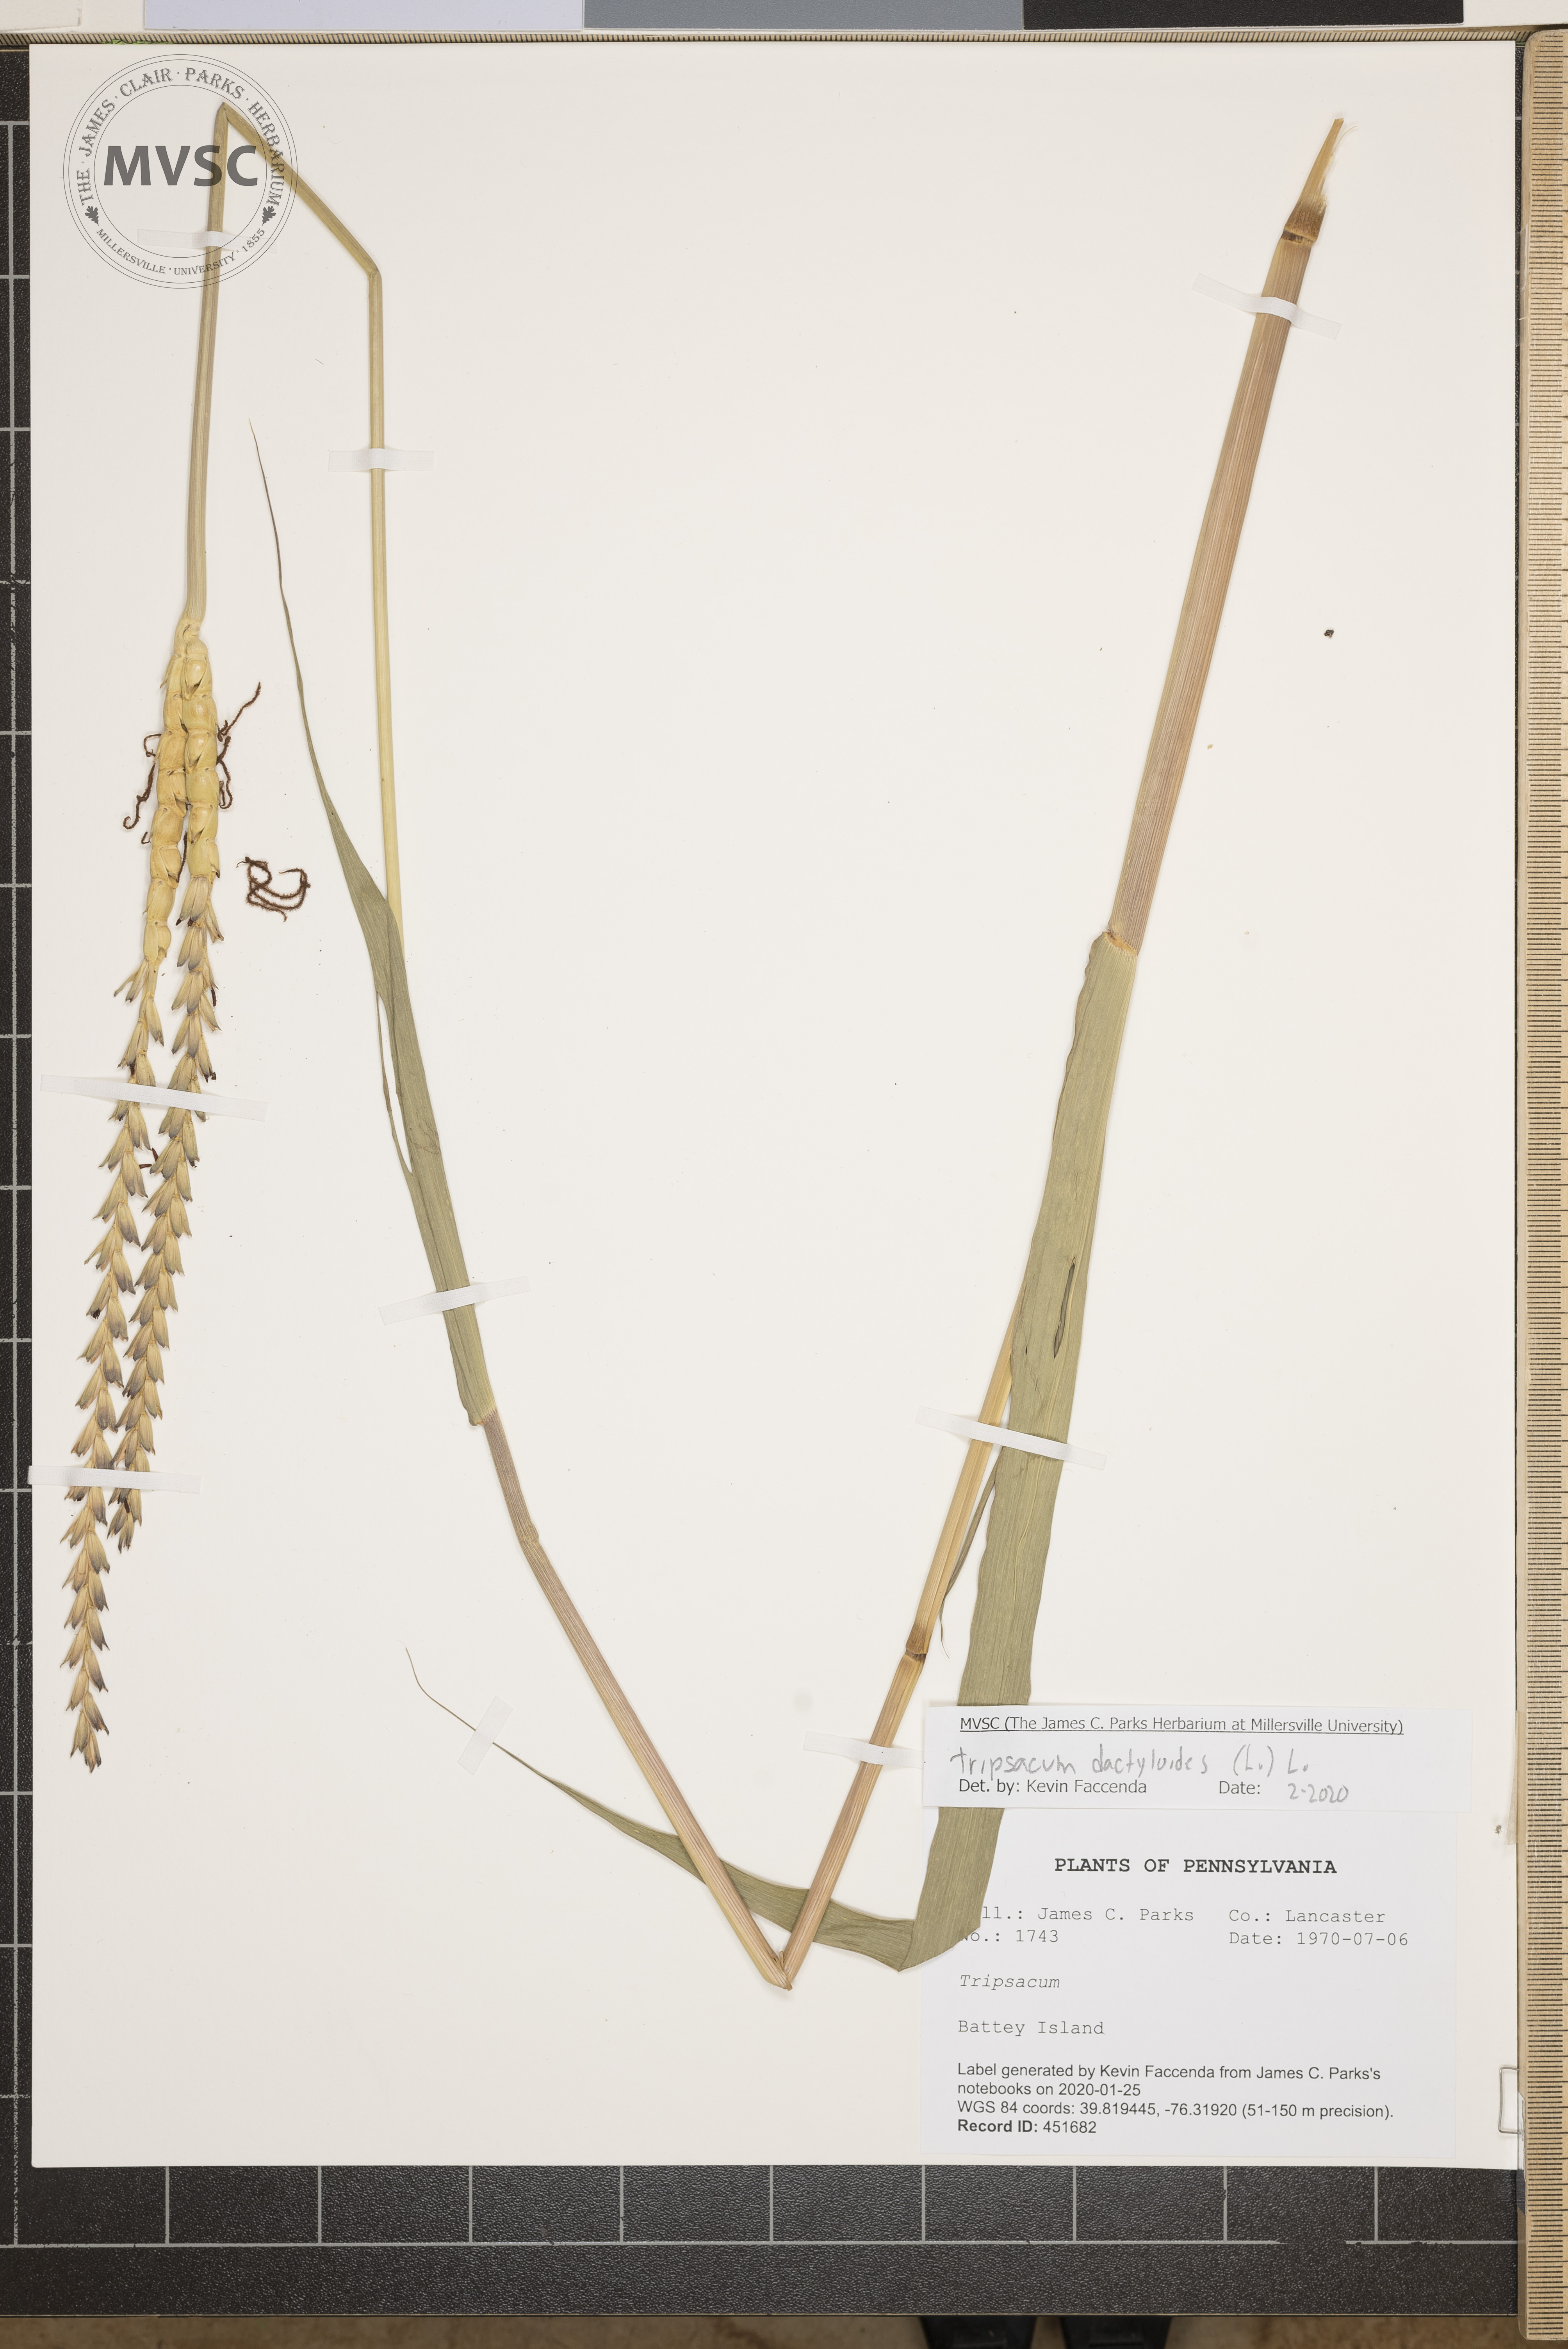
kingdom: Plantae
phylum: Tracheophyta
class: Liliopsida
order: Poales
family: Poaceae
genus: Tripsacum
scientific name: Tripsacum dactyloides
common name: Buffalo-grass
